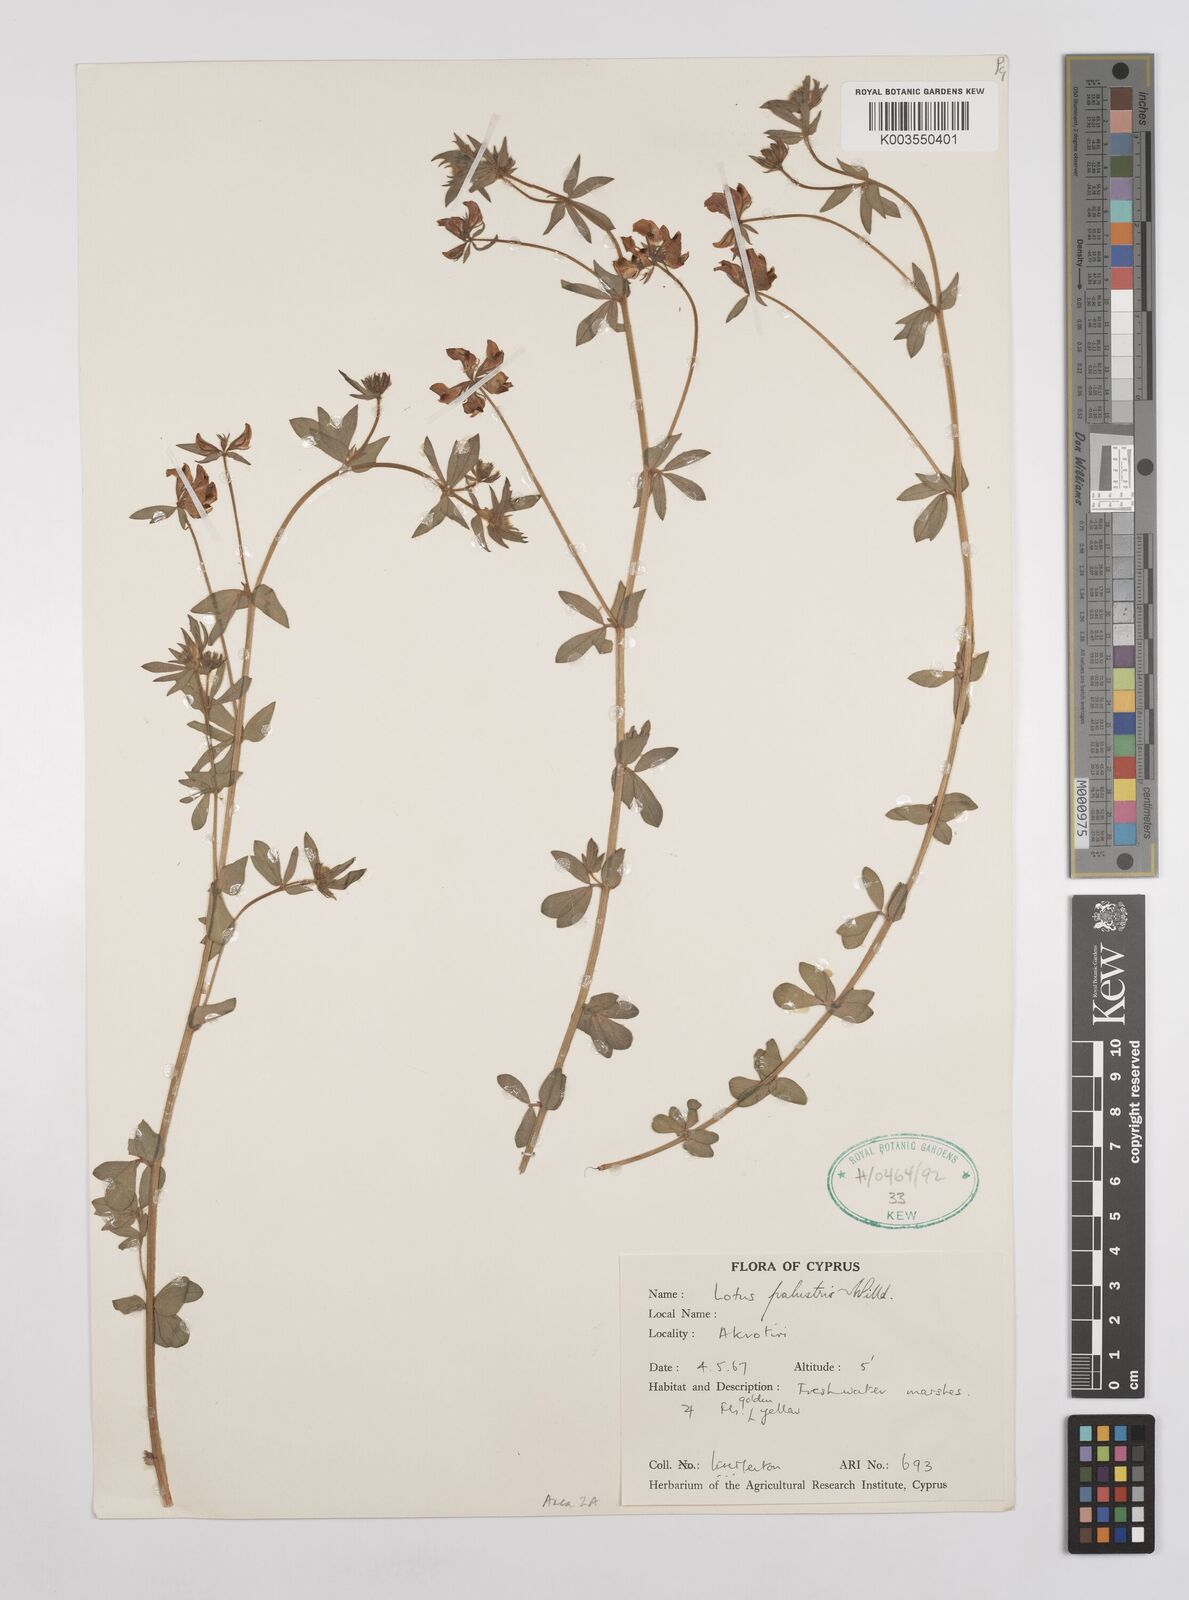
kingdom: Plantae
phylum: Tracheophyta
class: Magnoliopsida
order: Fabales
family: Fabaceae
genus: Lotus
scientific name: Lotus palustris
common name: Large birds-foot trefoil
